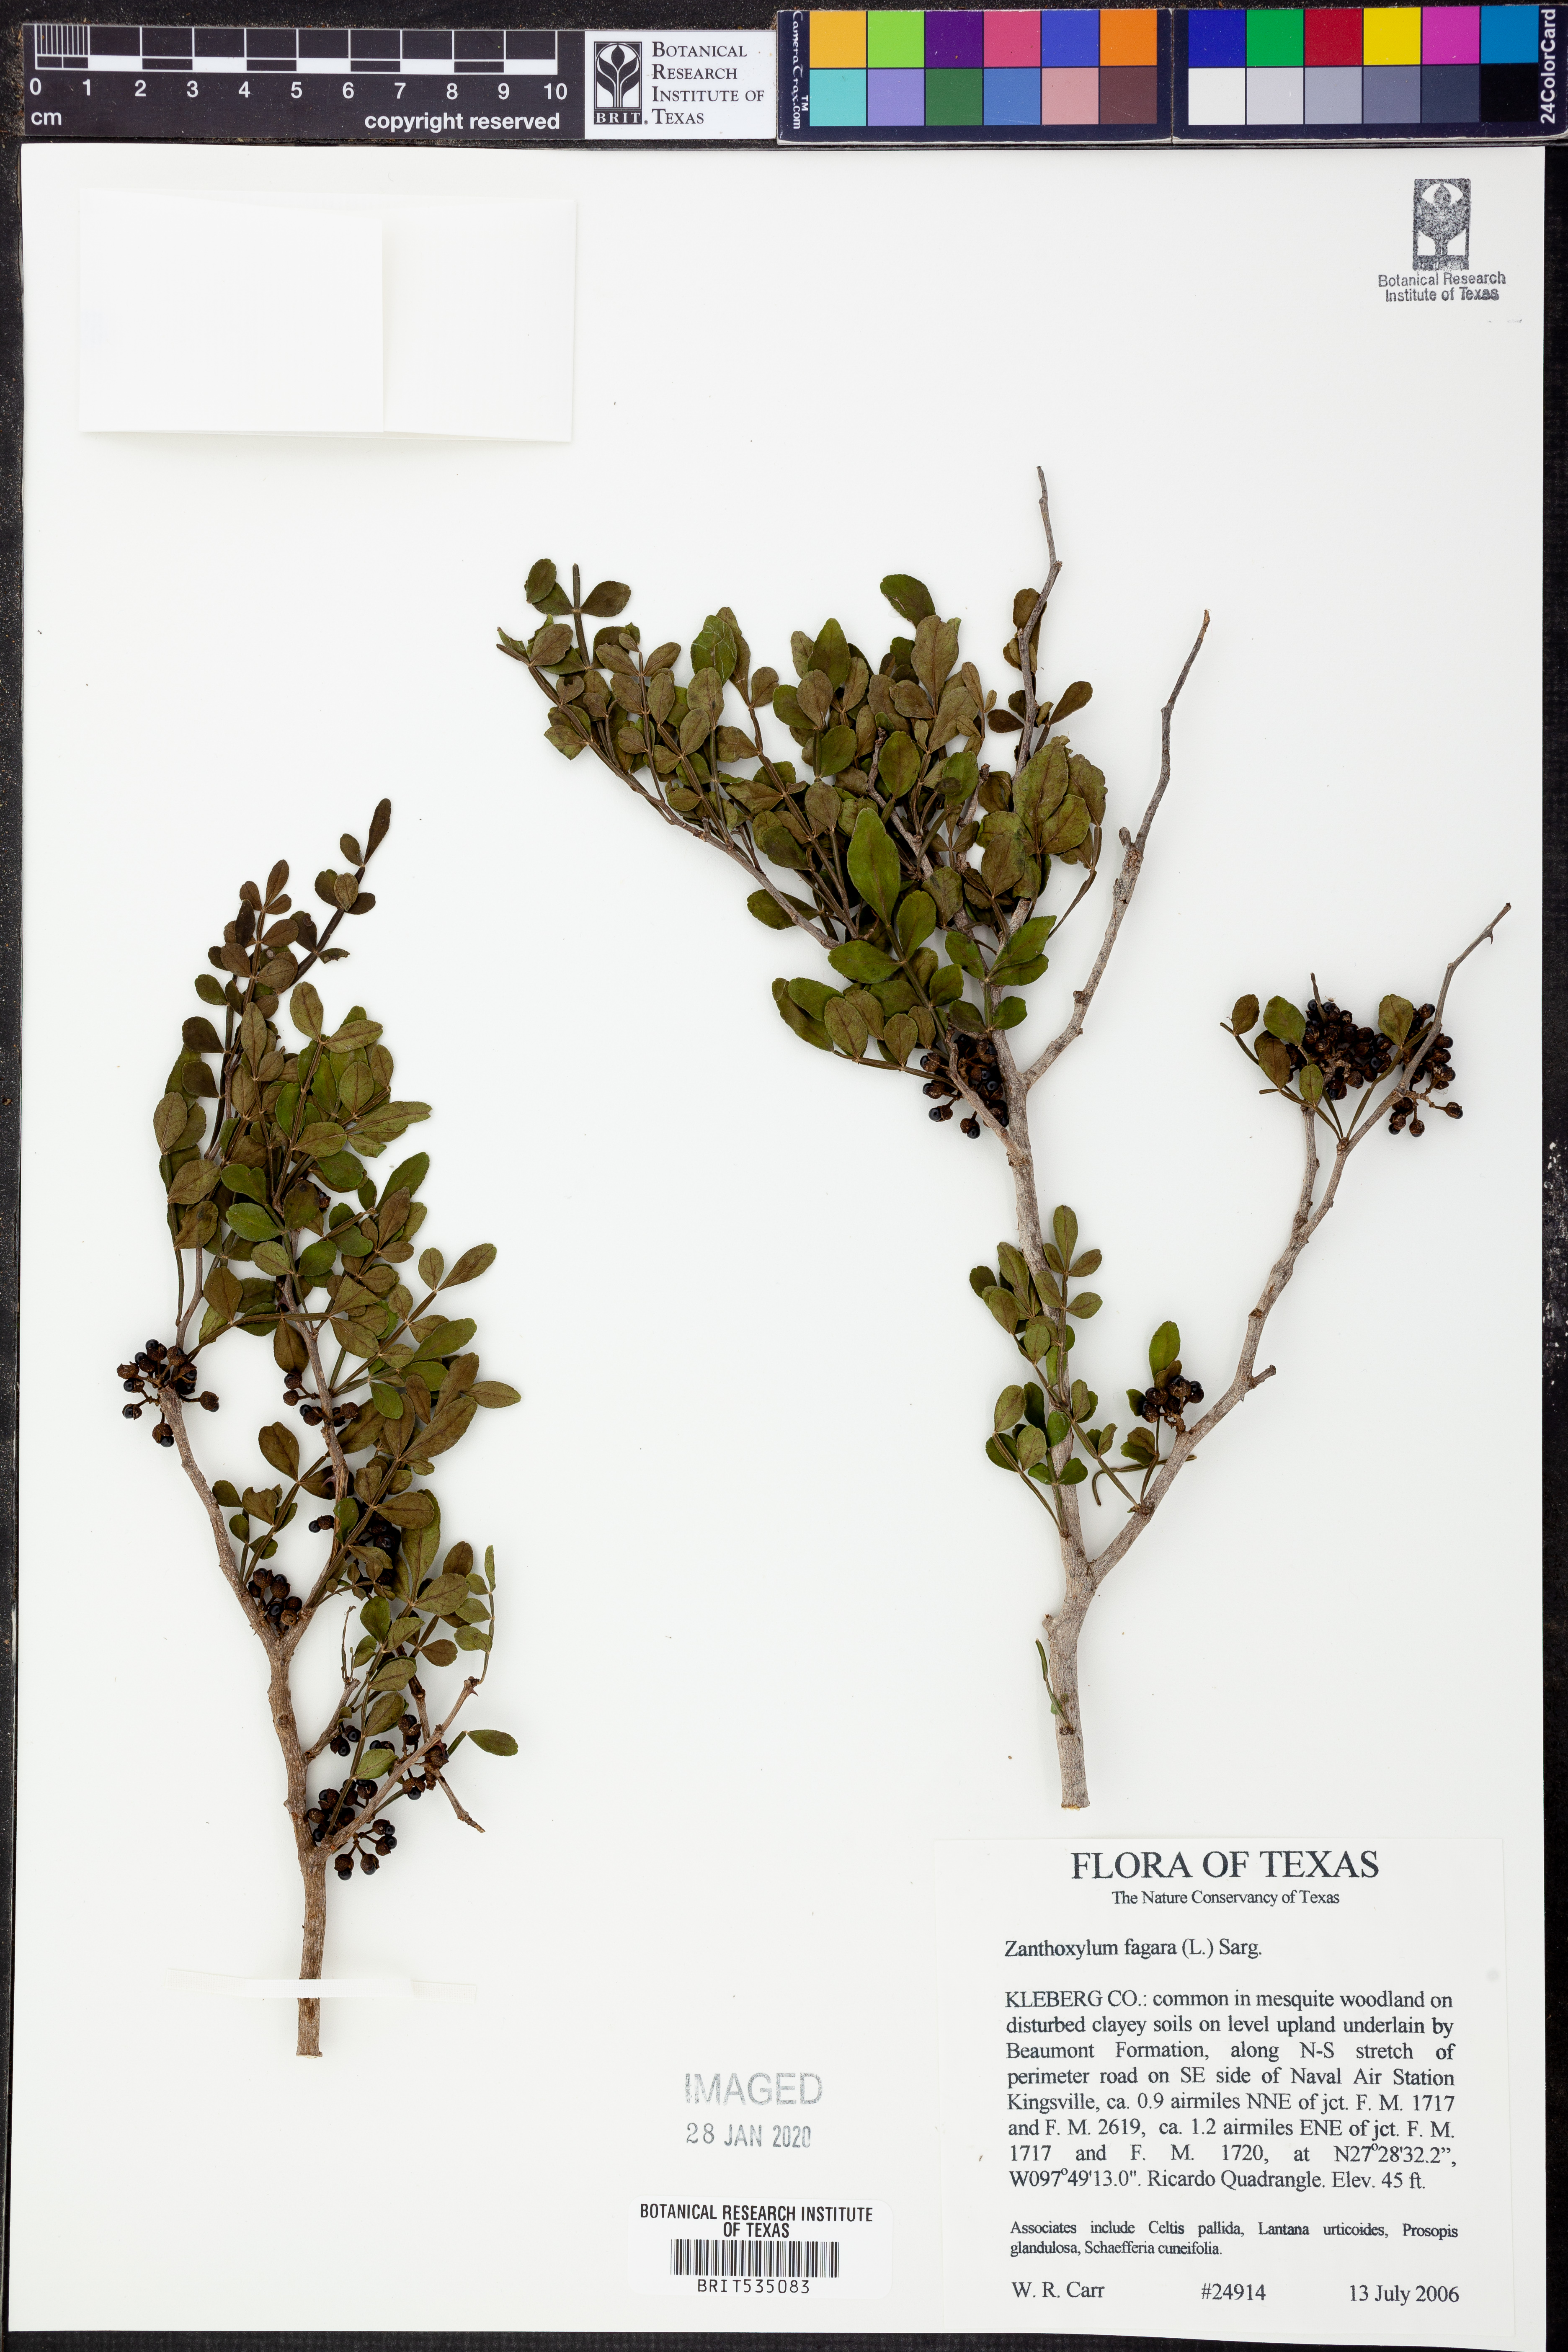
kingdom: Plantae
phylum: Tracheophyta
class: Magnoliopsida
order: Sapindales
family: Rutaceae
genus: Zanthoxylum
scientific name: Zanthoxylum fagara
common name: Lime prickly-ash
